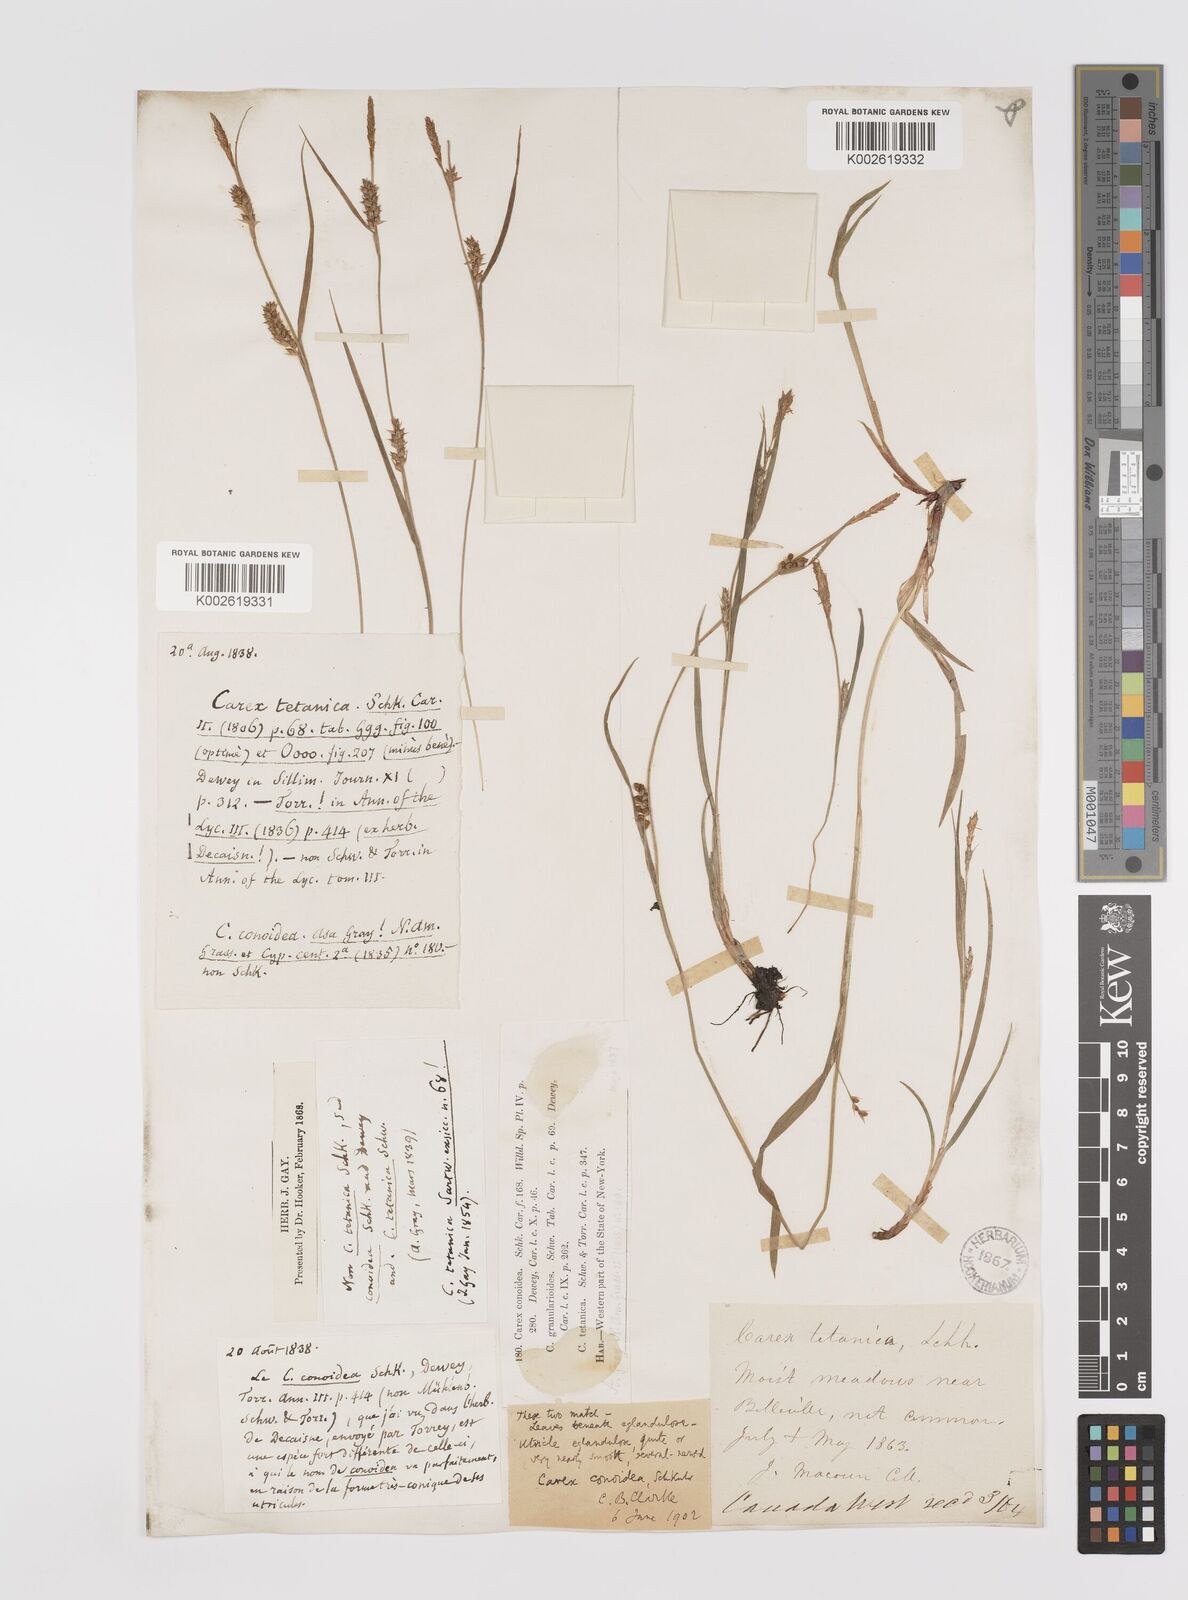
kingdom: Plantae
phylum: Tracheophyta
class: Liliopsida
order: Poales
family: Cyperaceae
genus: Carex
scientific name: Carex conoidea
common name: Cone shaped sedge
